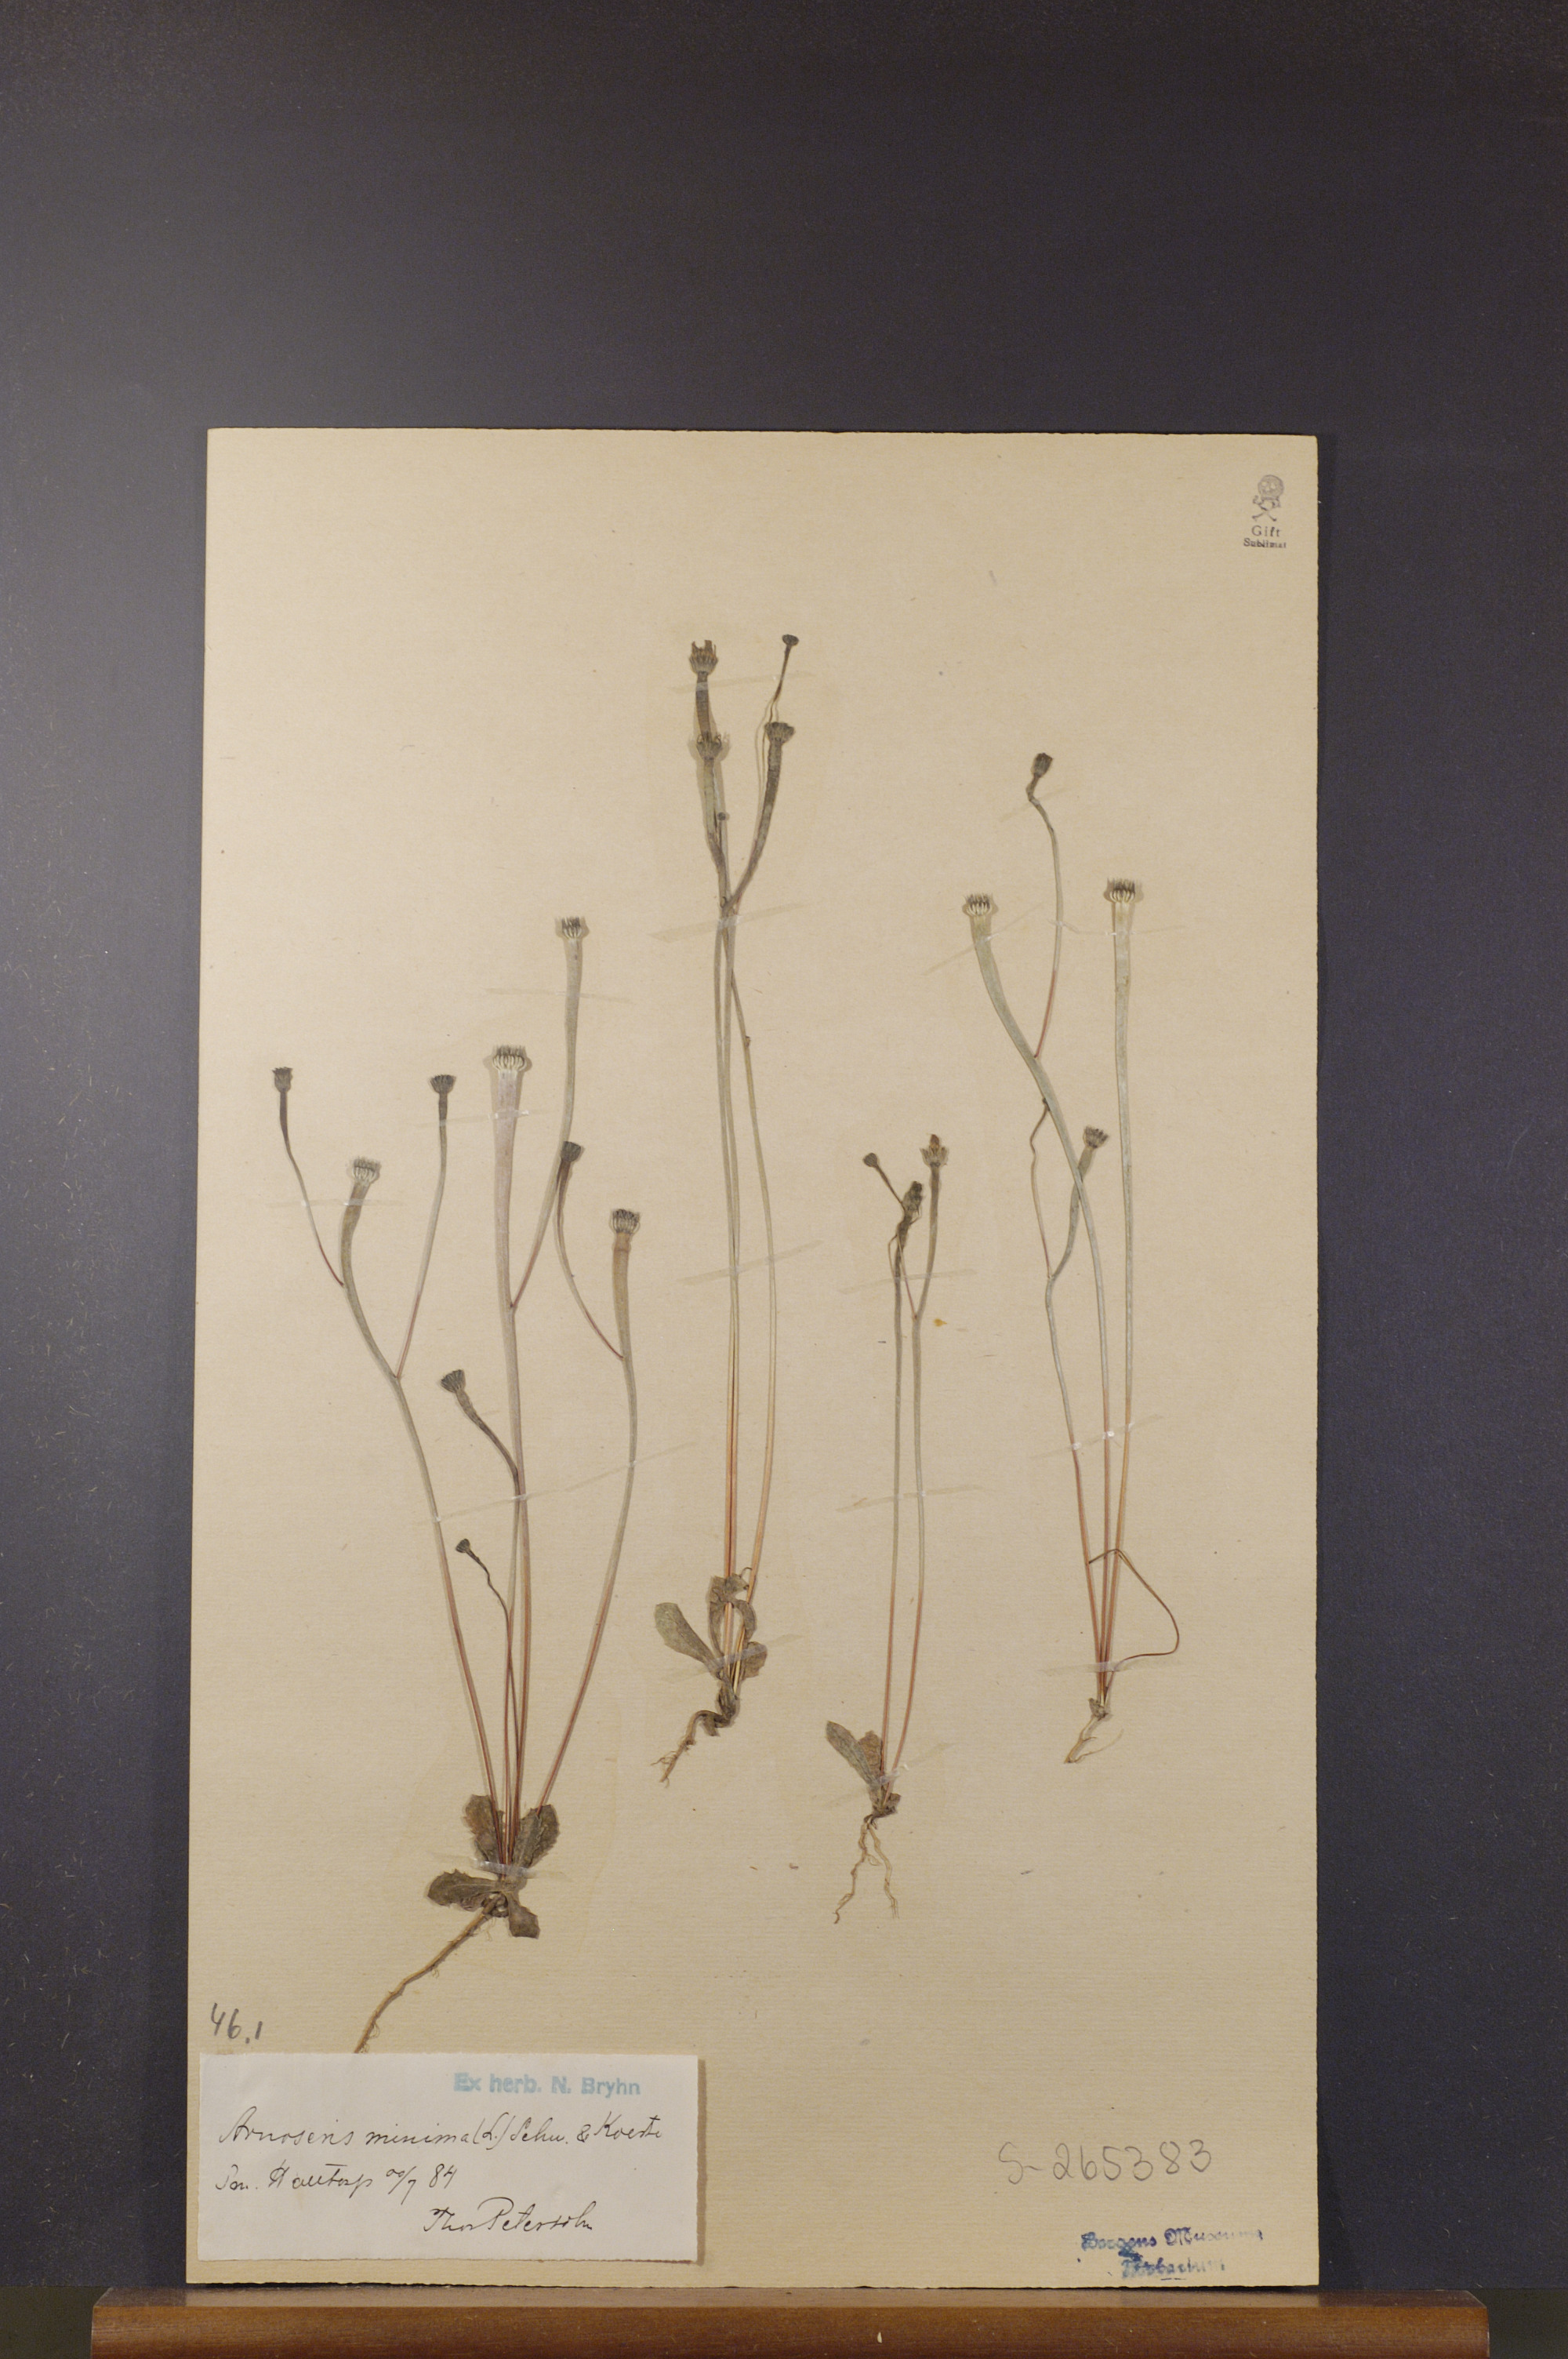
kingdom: Plantae
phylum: Tracheophyta
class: Magnoliopsida
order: Asterales
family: Asteraceae
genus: Arnoseris
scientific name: Arnoseris minima
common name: Lamb's succory
